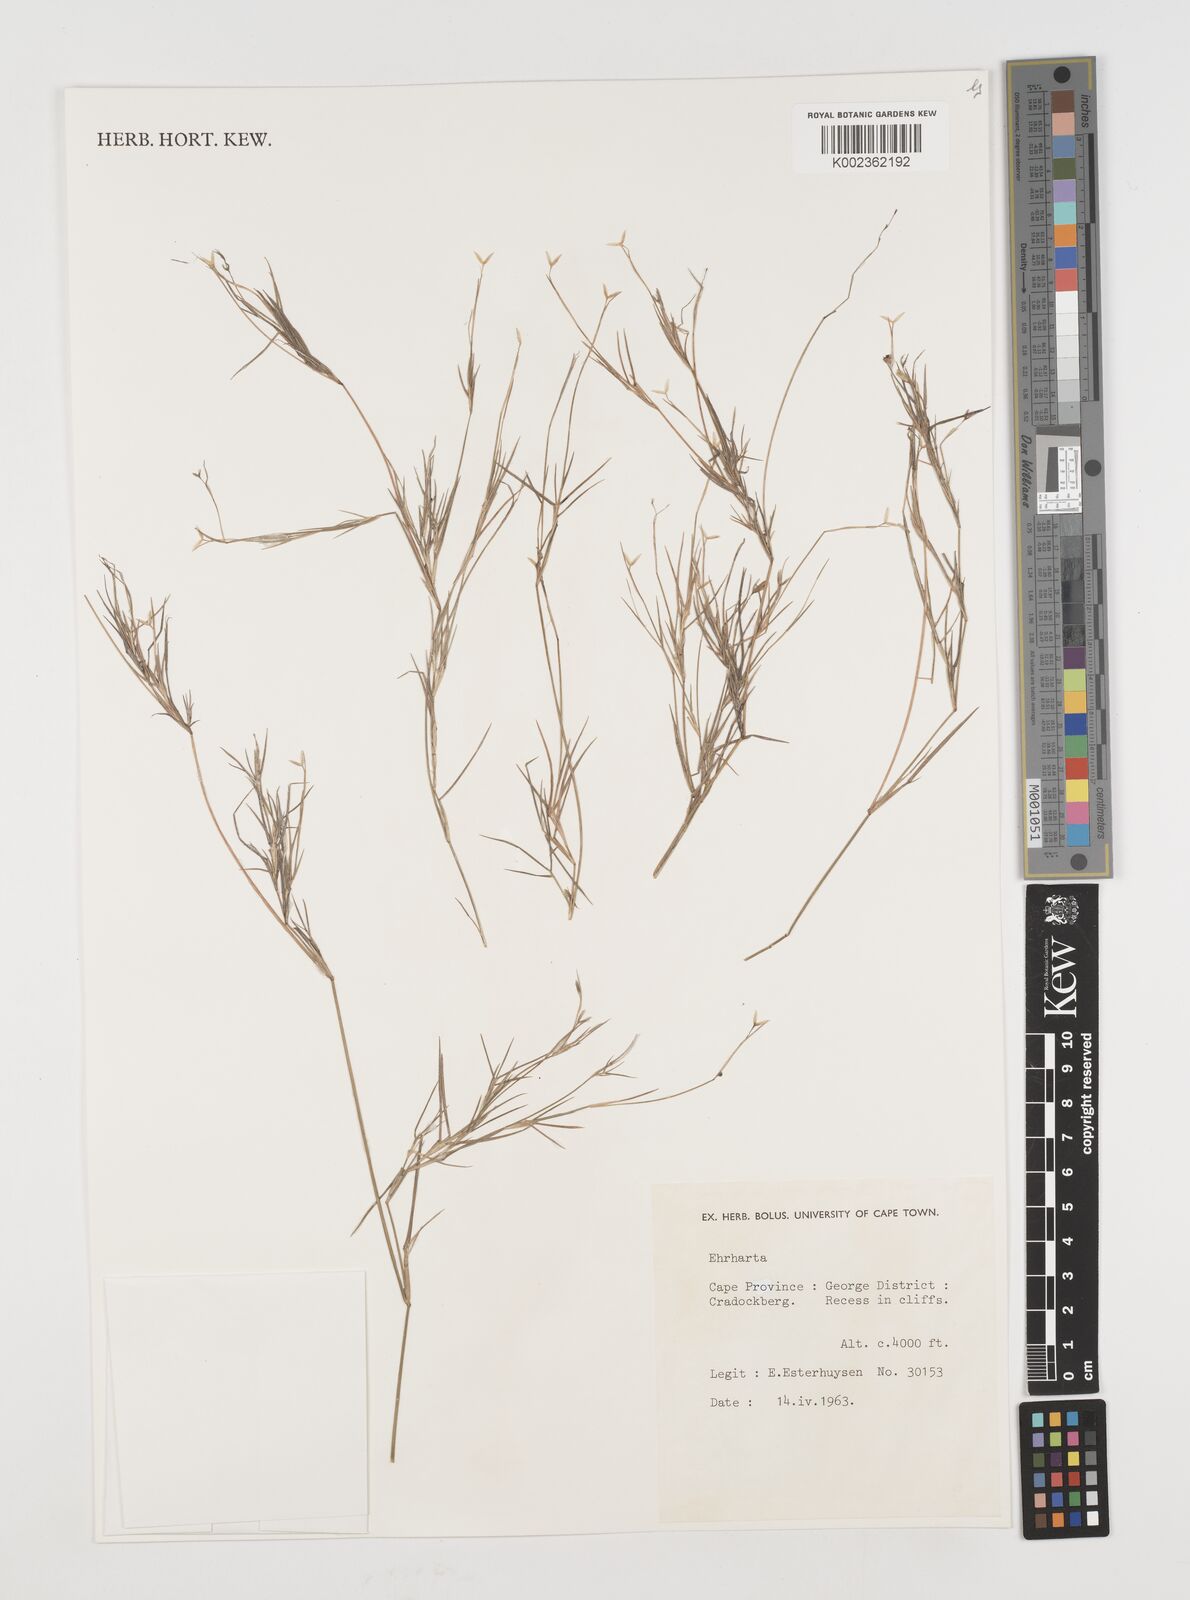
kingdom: Plantae
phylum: Tracheophyta
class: Liliopsida
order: Poales
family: Poaceae
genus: Ehrharta
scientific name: Ehrharta
